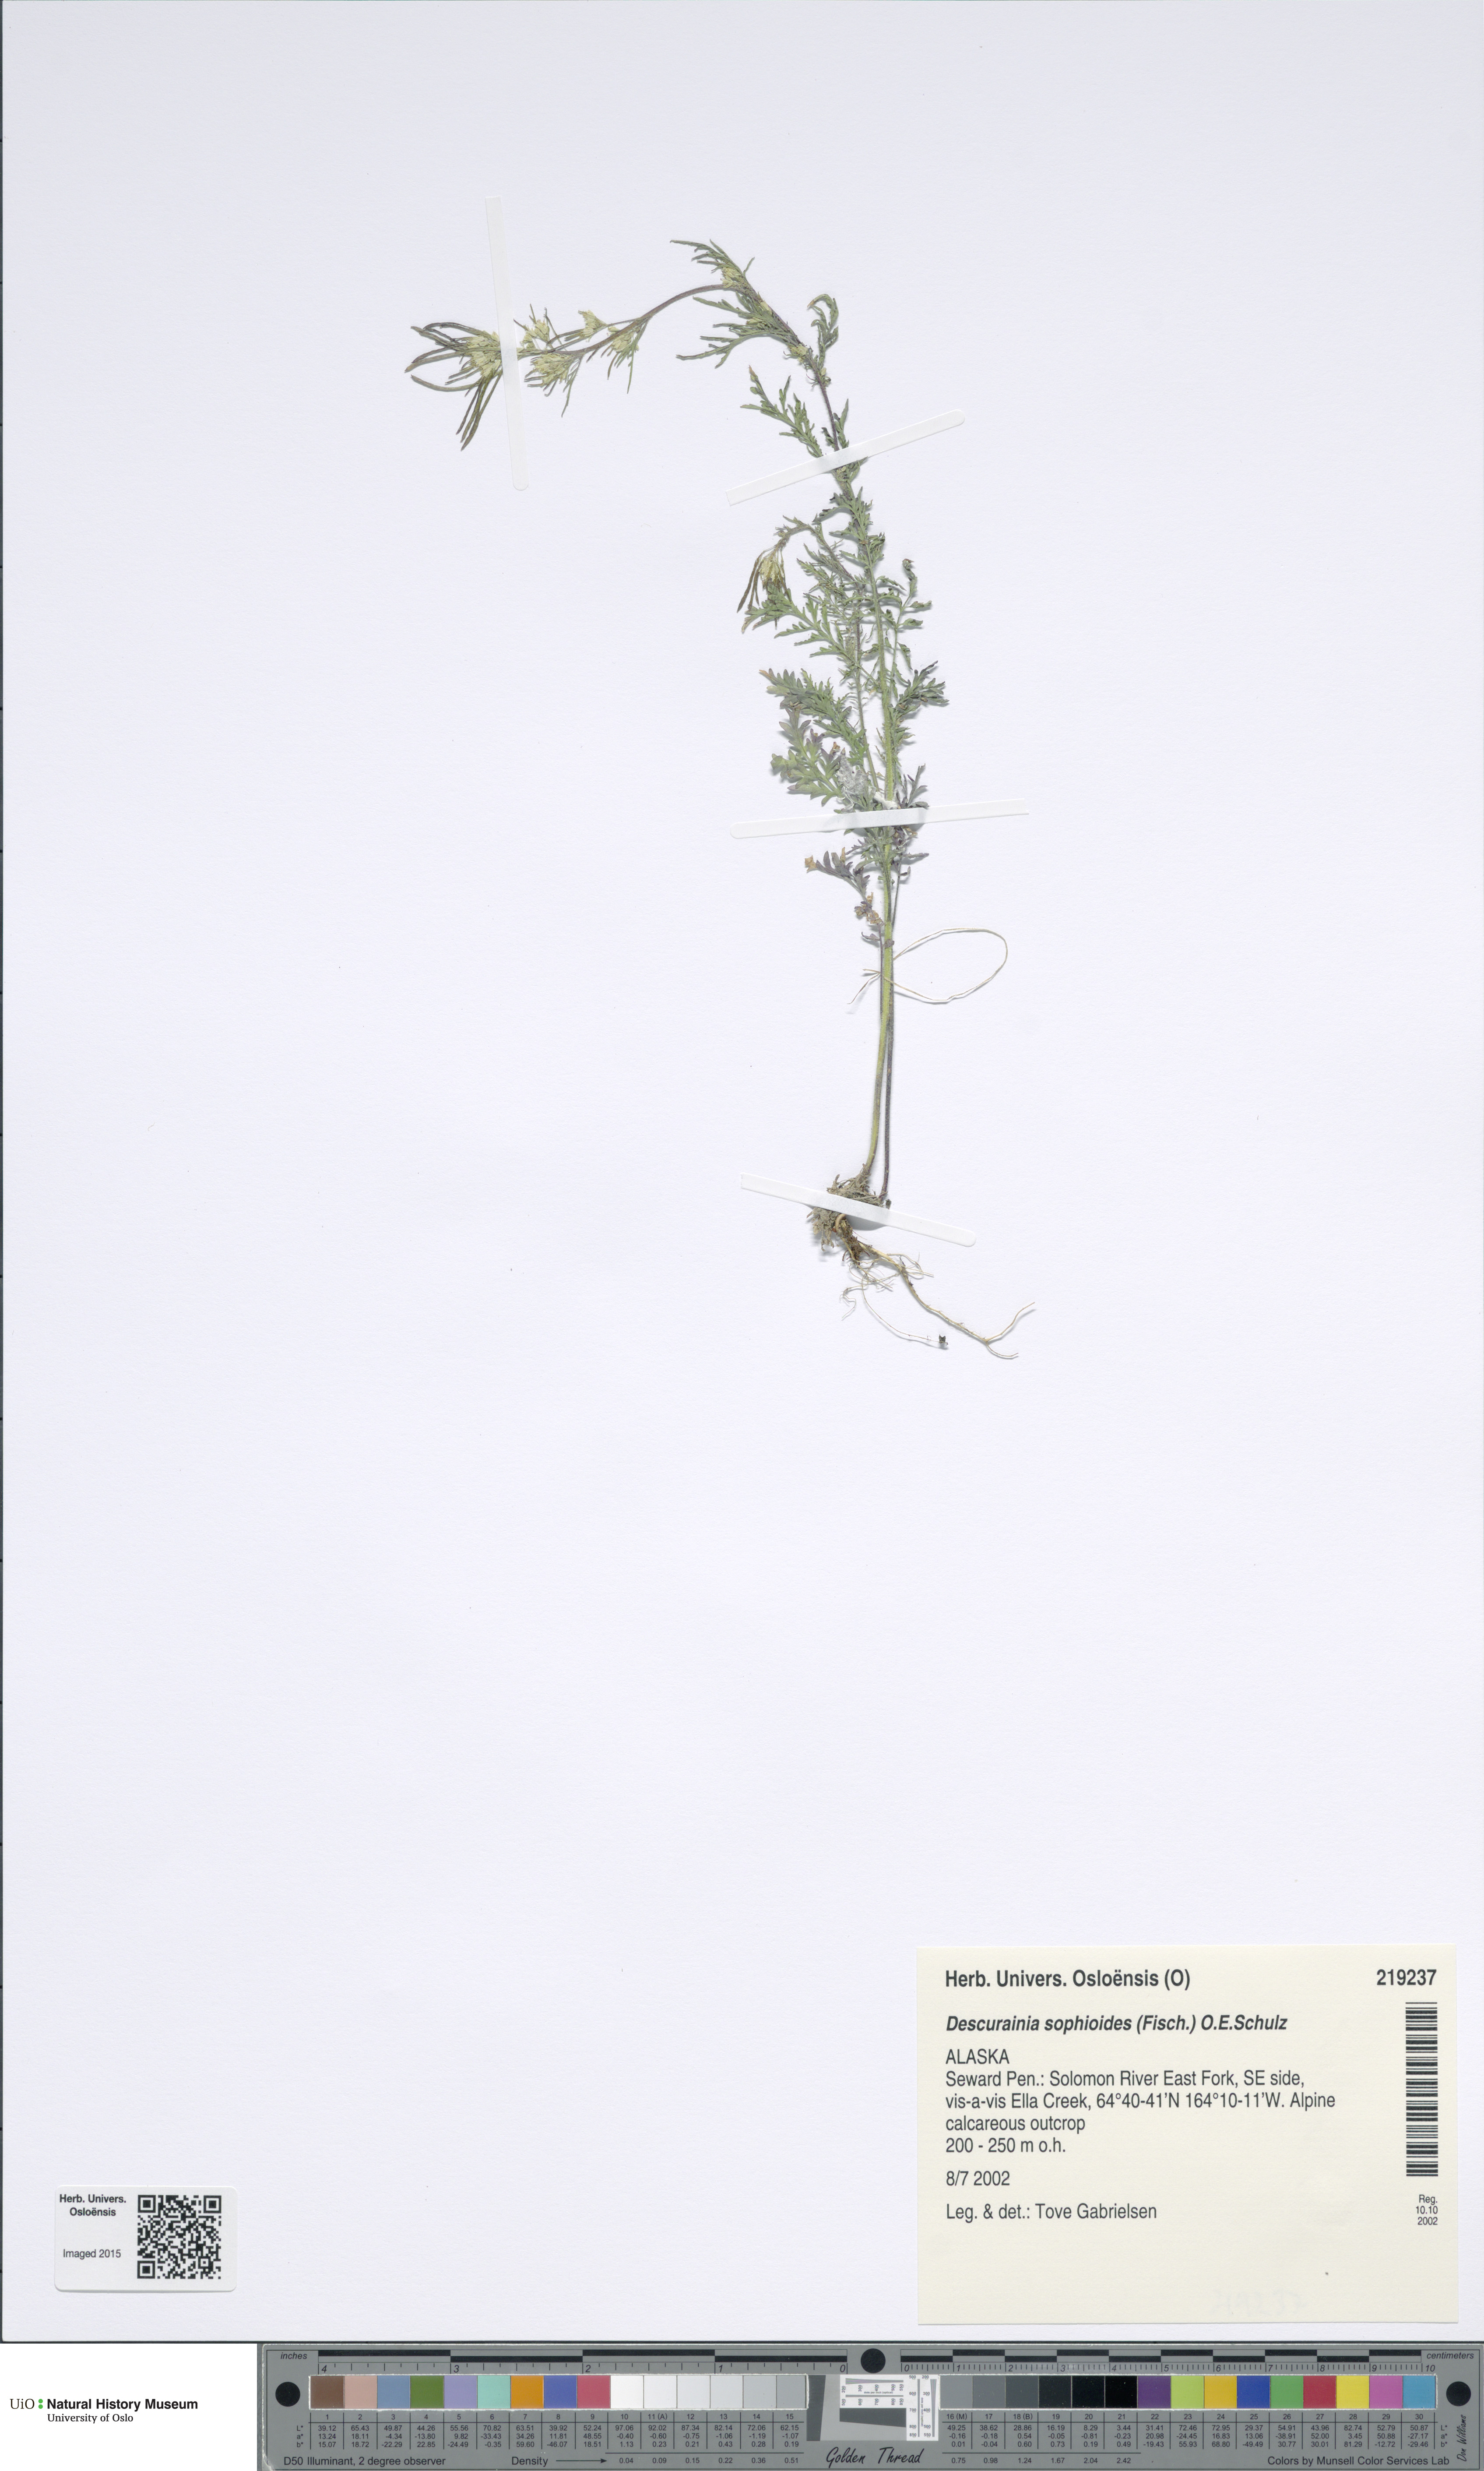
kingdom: Plantae
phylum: Tracheophyta
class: Magnoliopsida
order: Brassicales
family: Brassicaceae
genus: Descurainia
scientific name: Descurainia sophioides
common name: Northern tansy mustard
